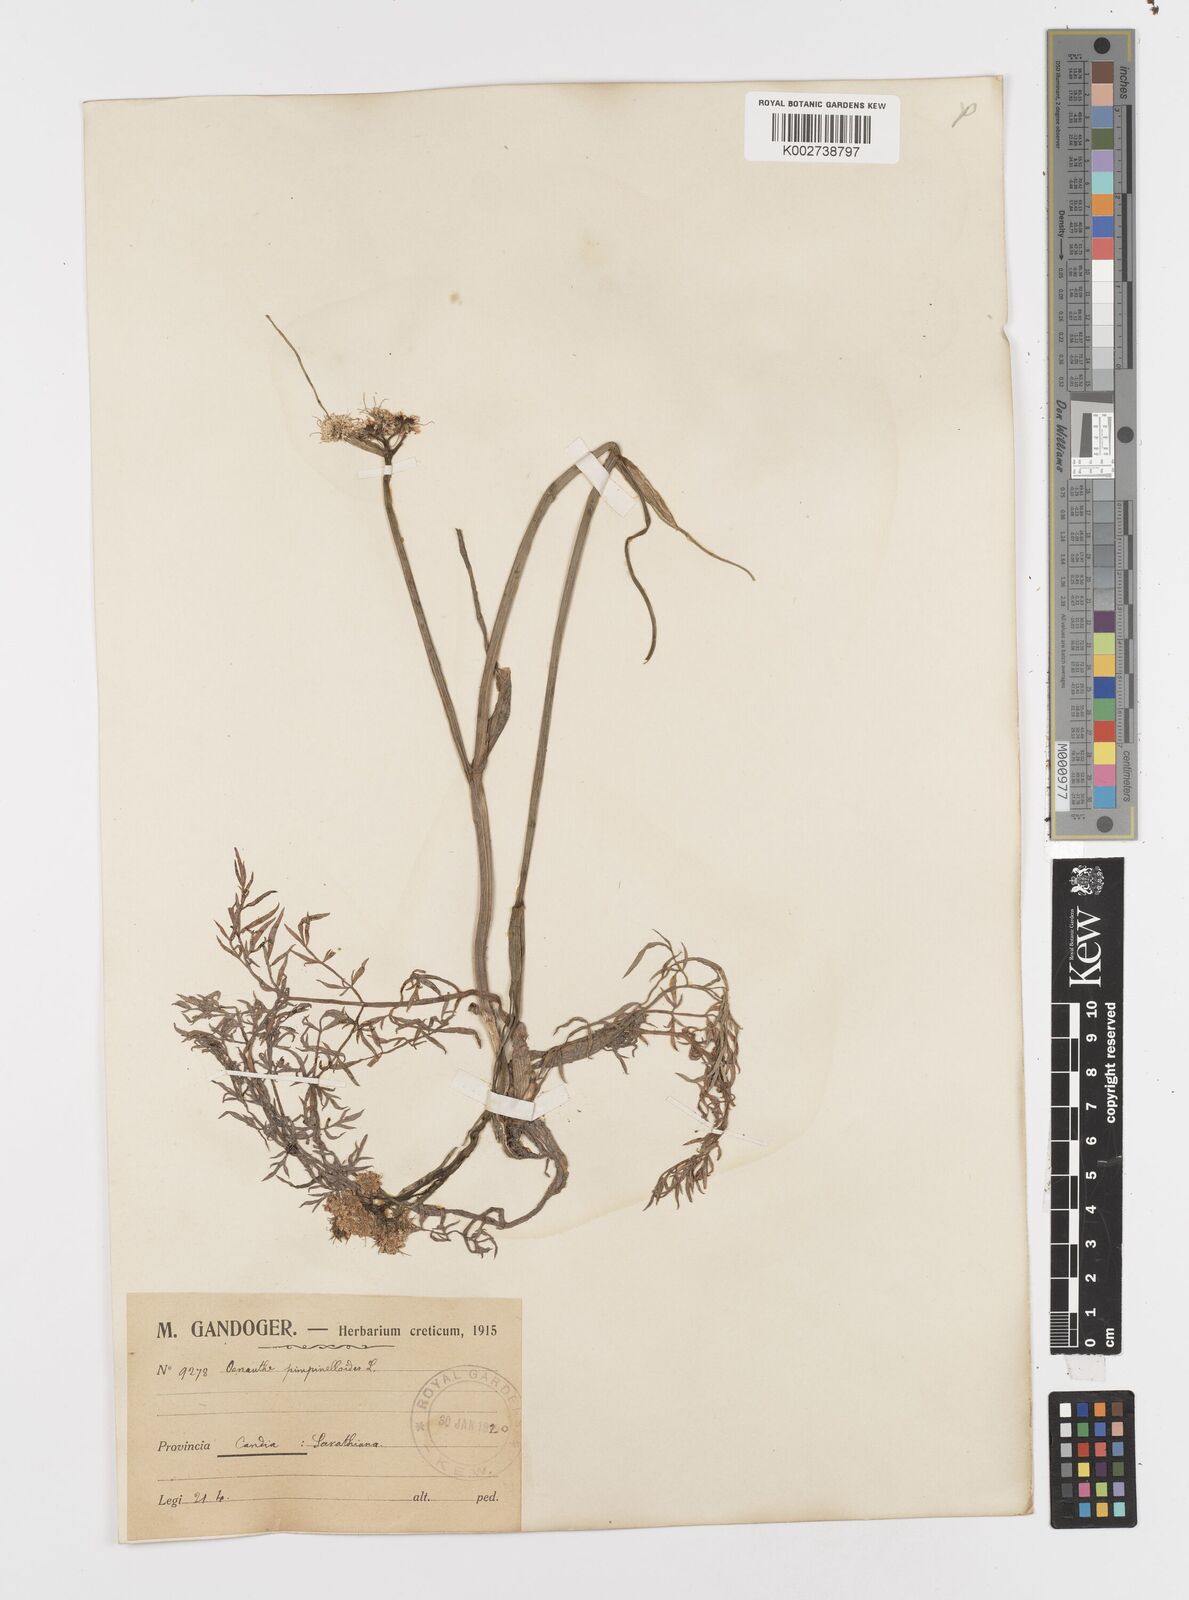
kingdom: Plantae
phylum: Tracheophyta
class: Magnoliopsida
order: Apiales
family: Apiaceae
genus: Oenanthe
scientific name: Oenanthe pimpinelloides
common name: Corky-fruited water-dropwort
